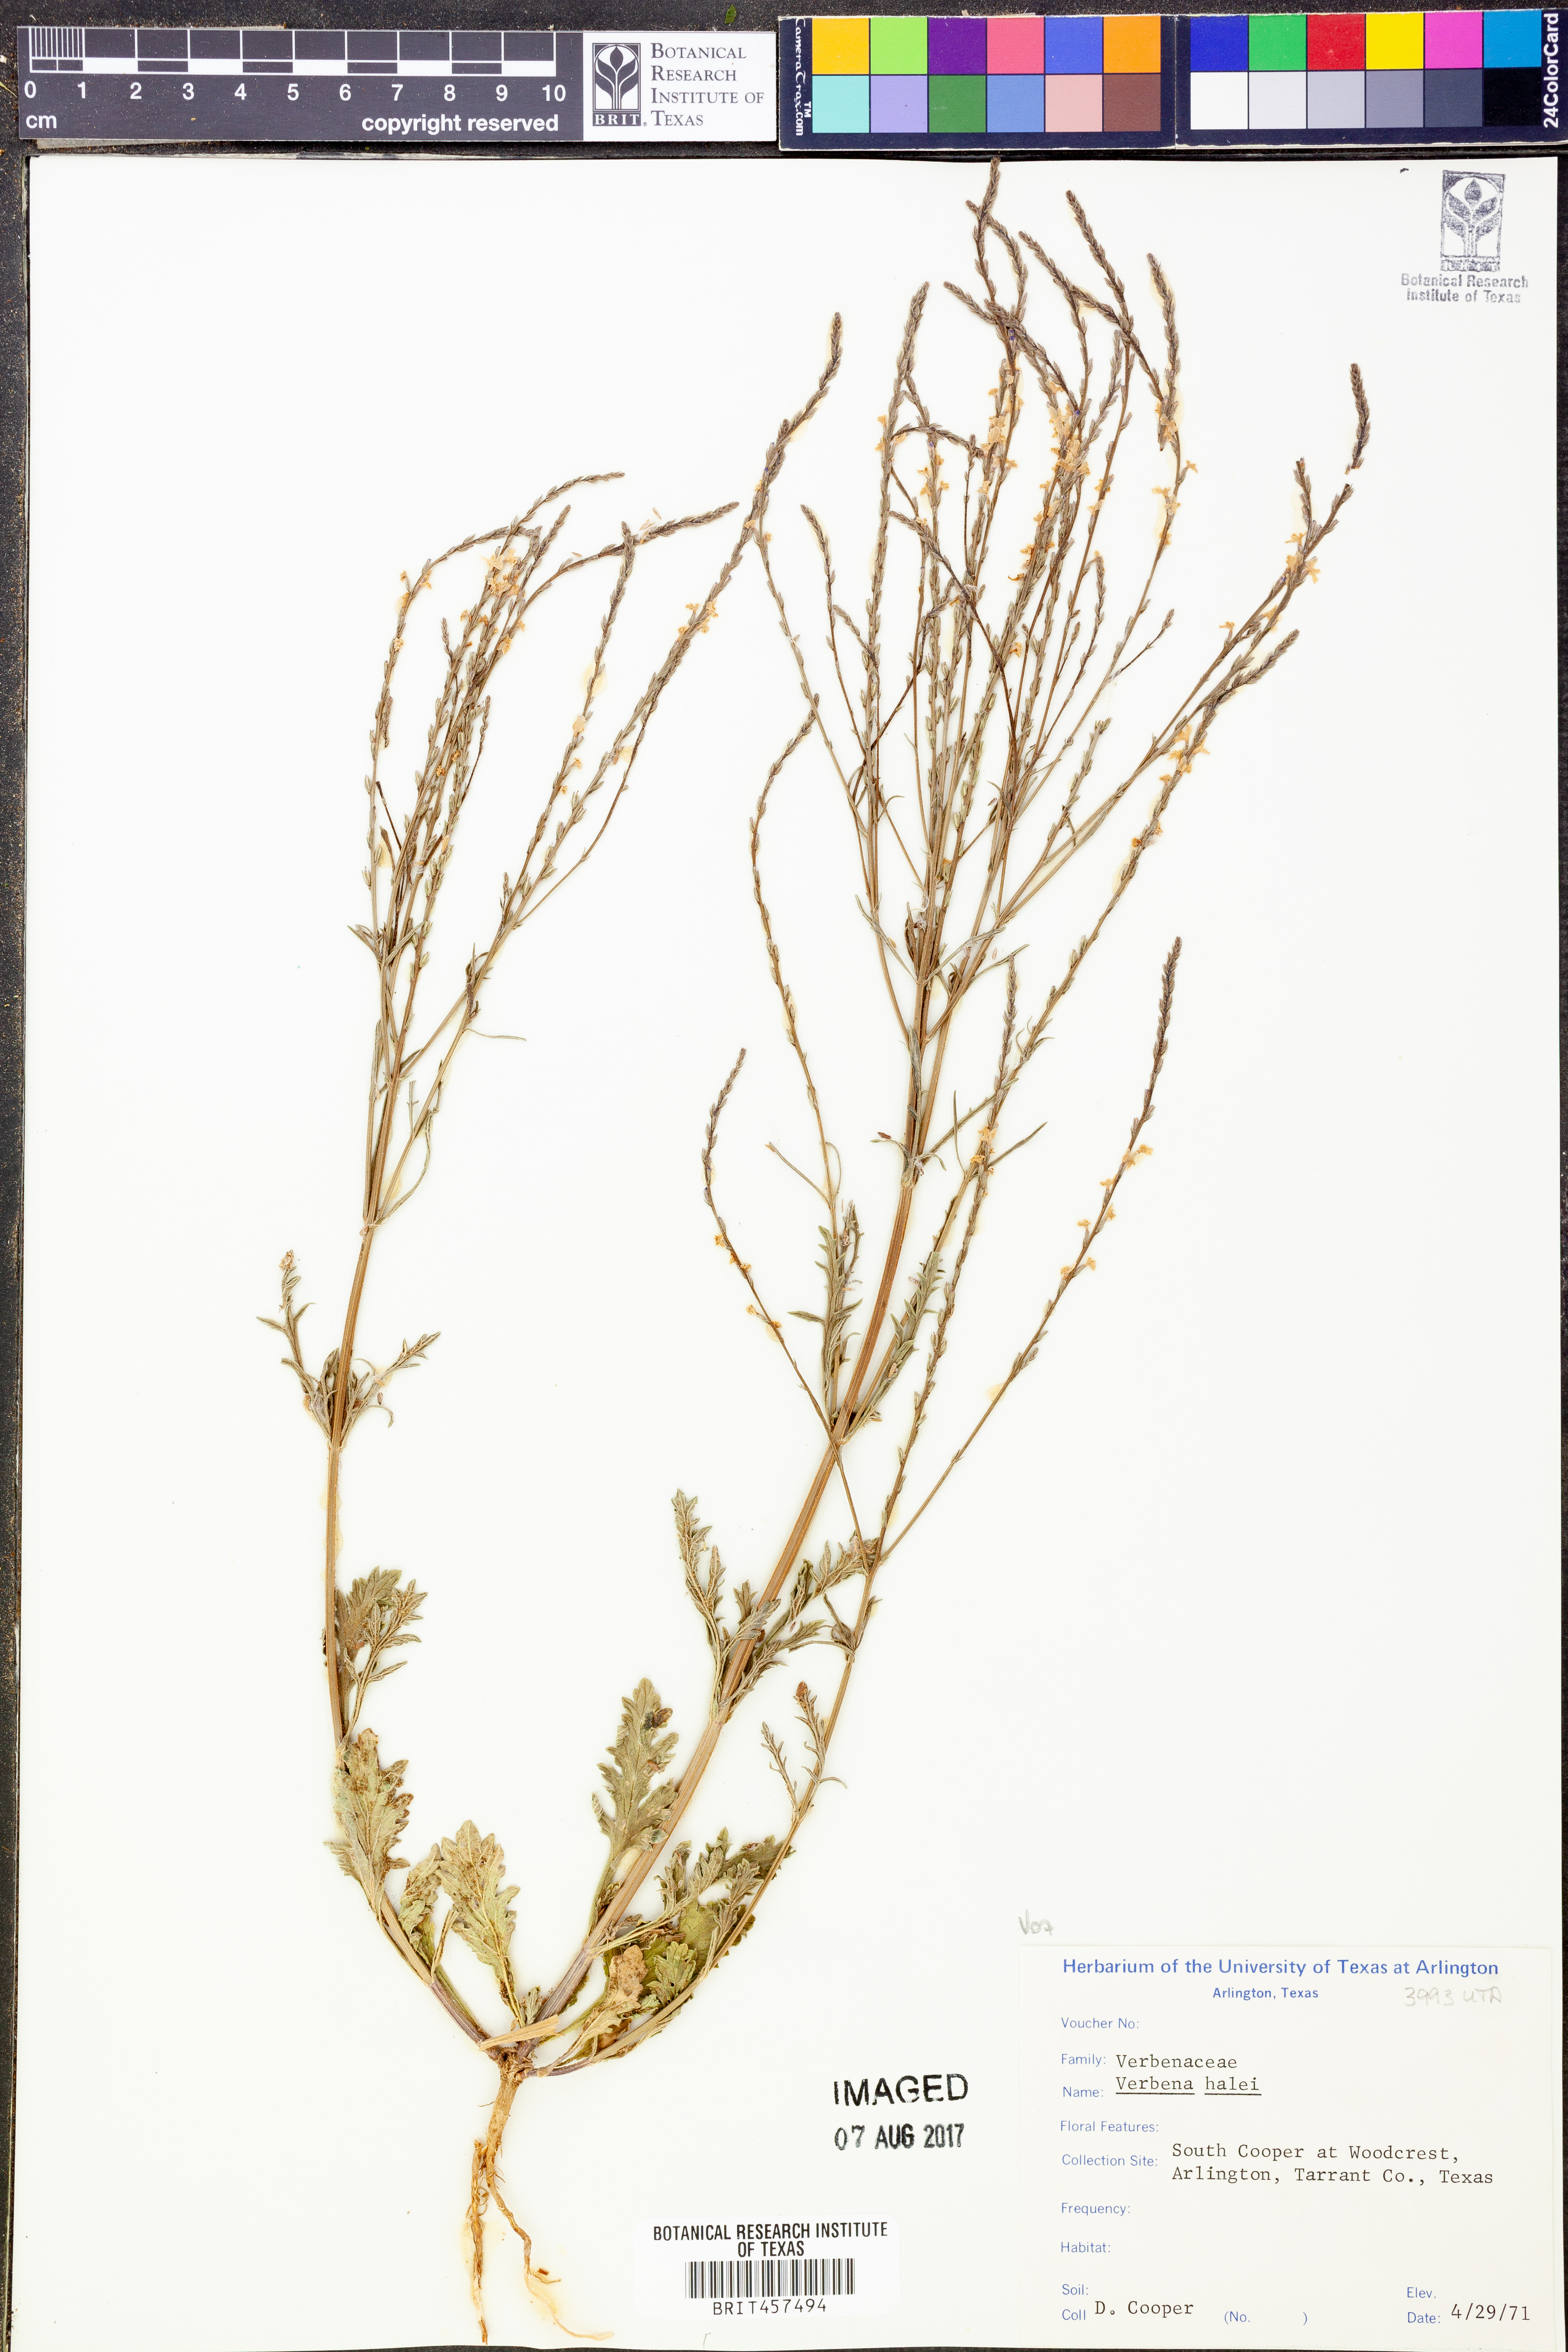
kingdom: Plantae
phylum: Tracheophyta
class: Magnoliopsida
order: Lamiales
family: Verbenaceae
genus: Verbena
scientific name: Verbena halei
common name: Texas vervain
